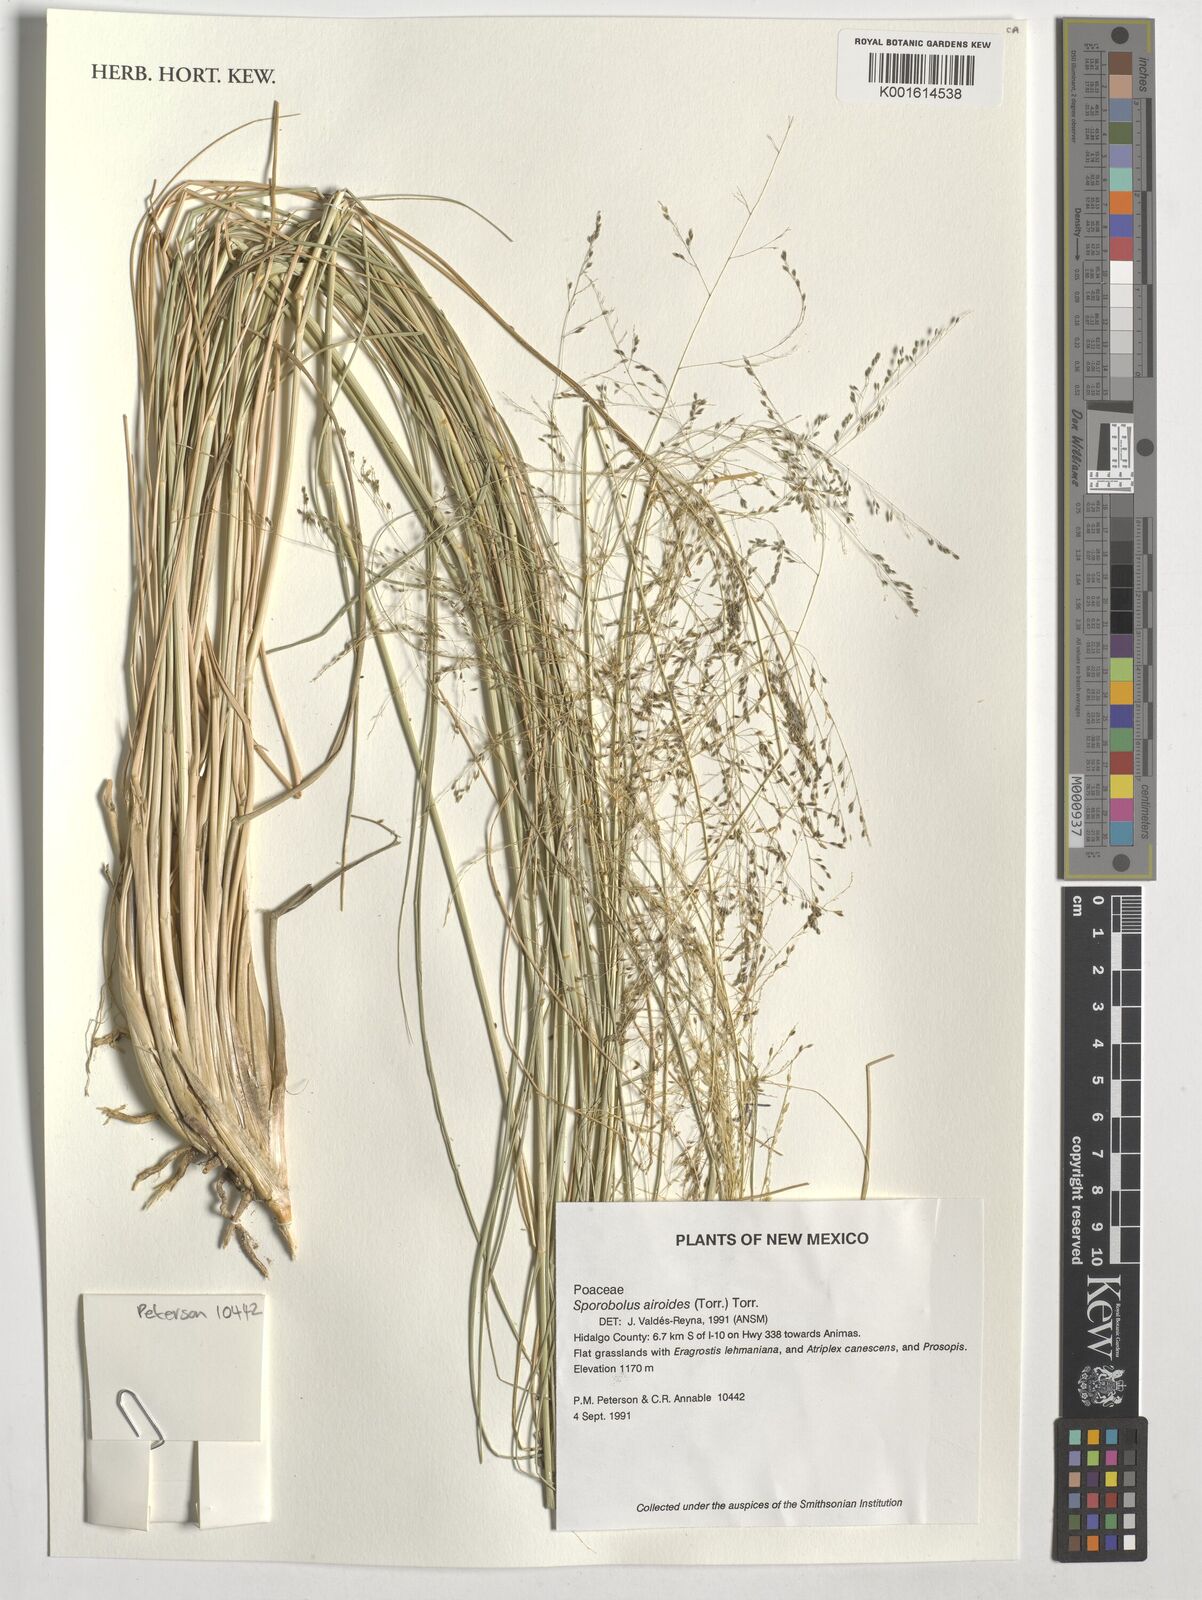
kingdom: Plantae
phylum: Tracheophyta
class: Liliopsida
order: Poales
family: Poaceae
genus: Sporobolus
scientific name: Sporobolus airoides
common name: Alkali sacaton
